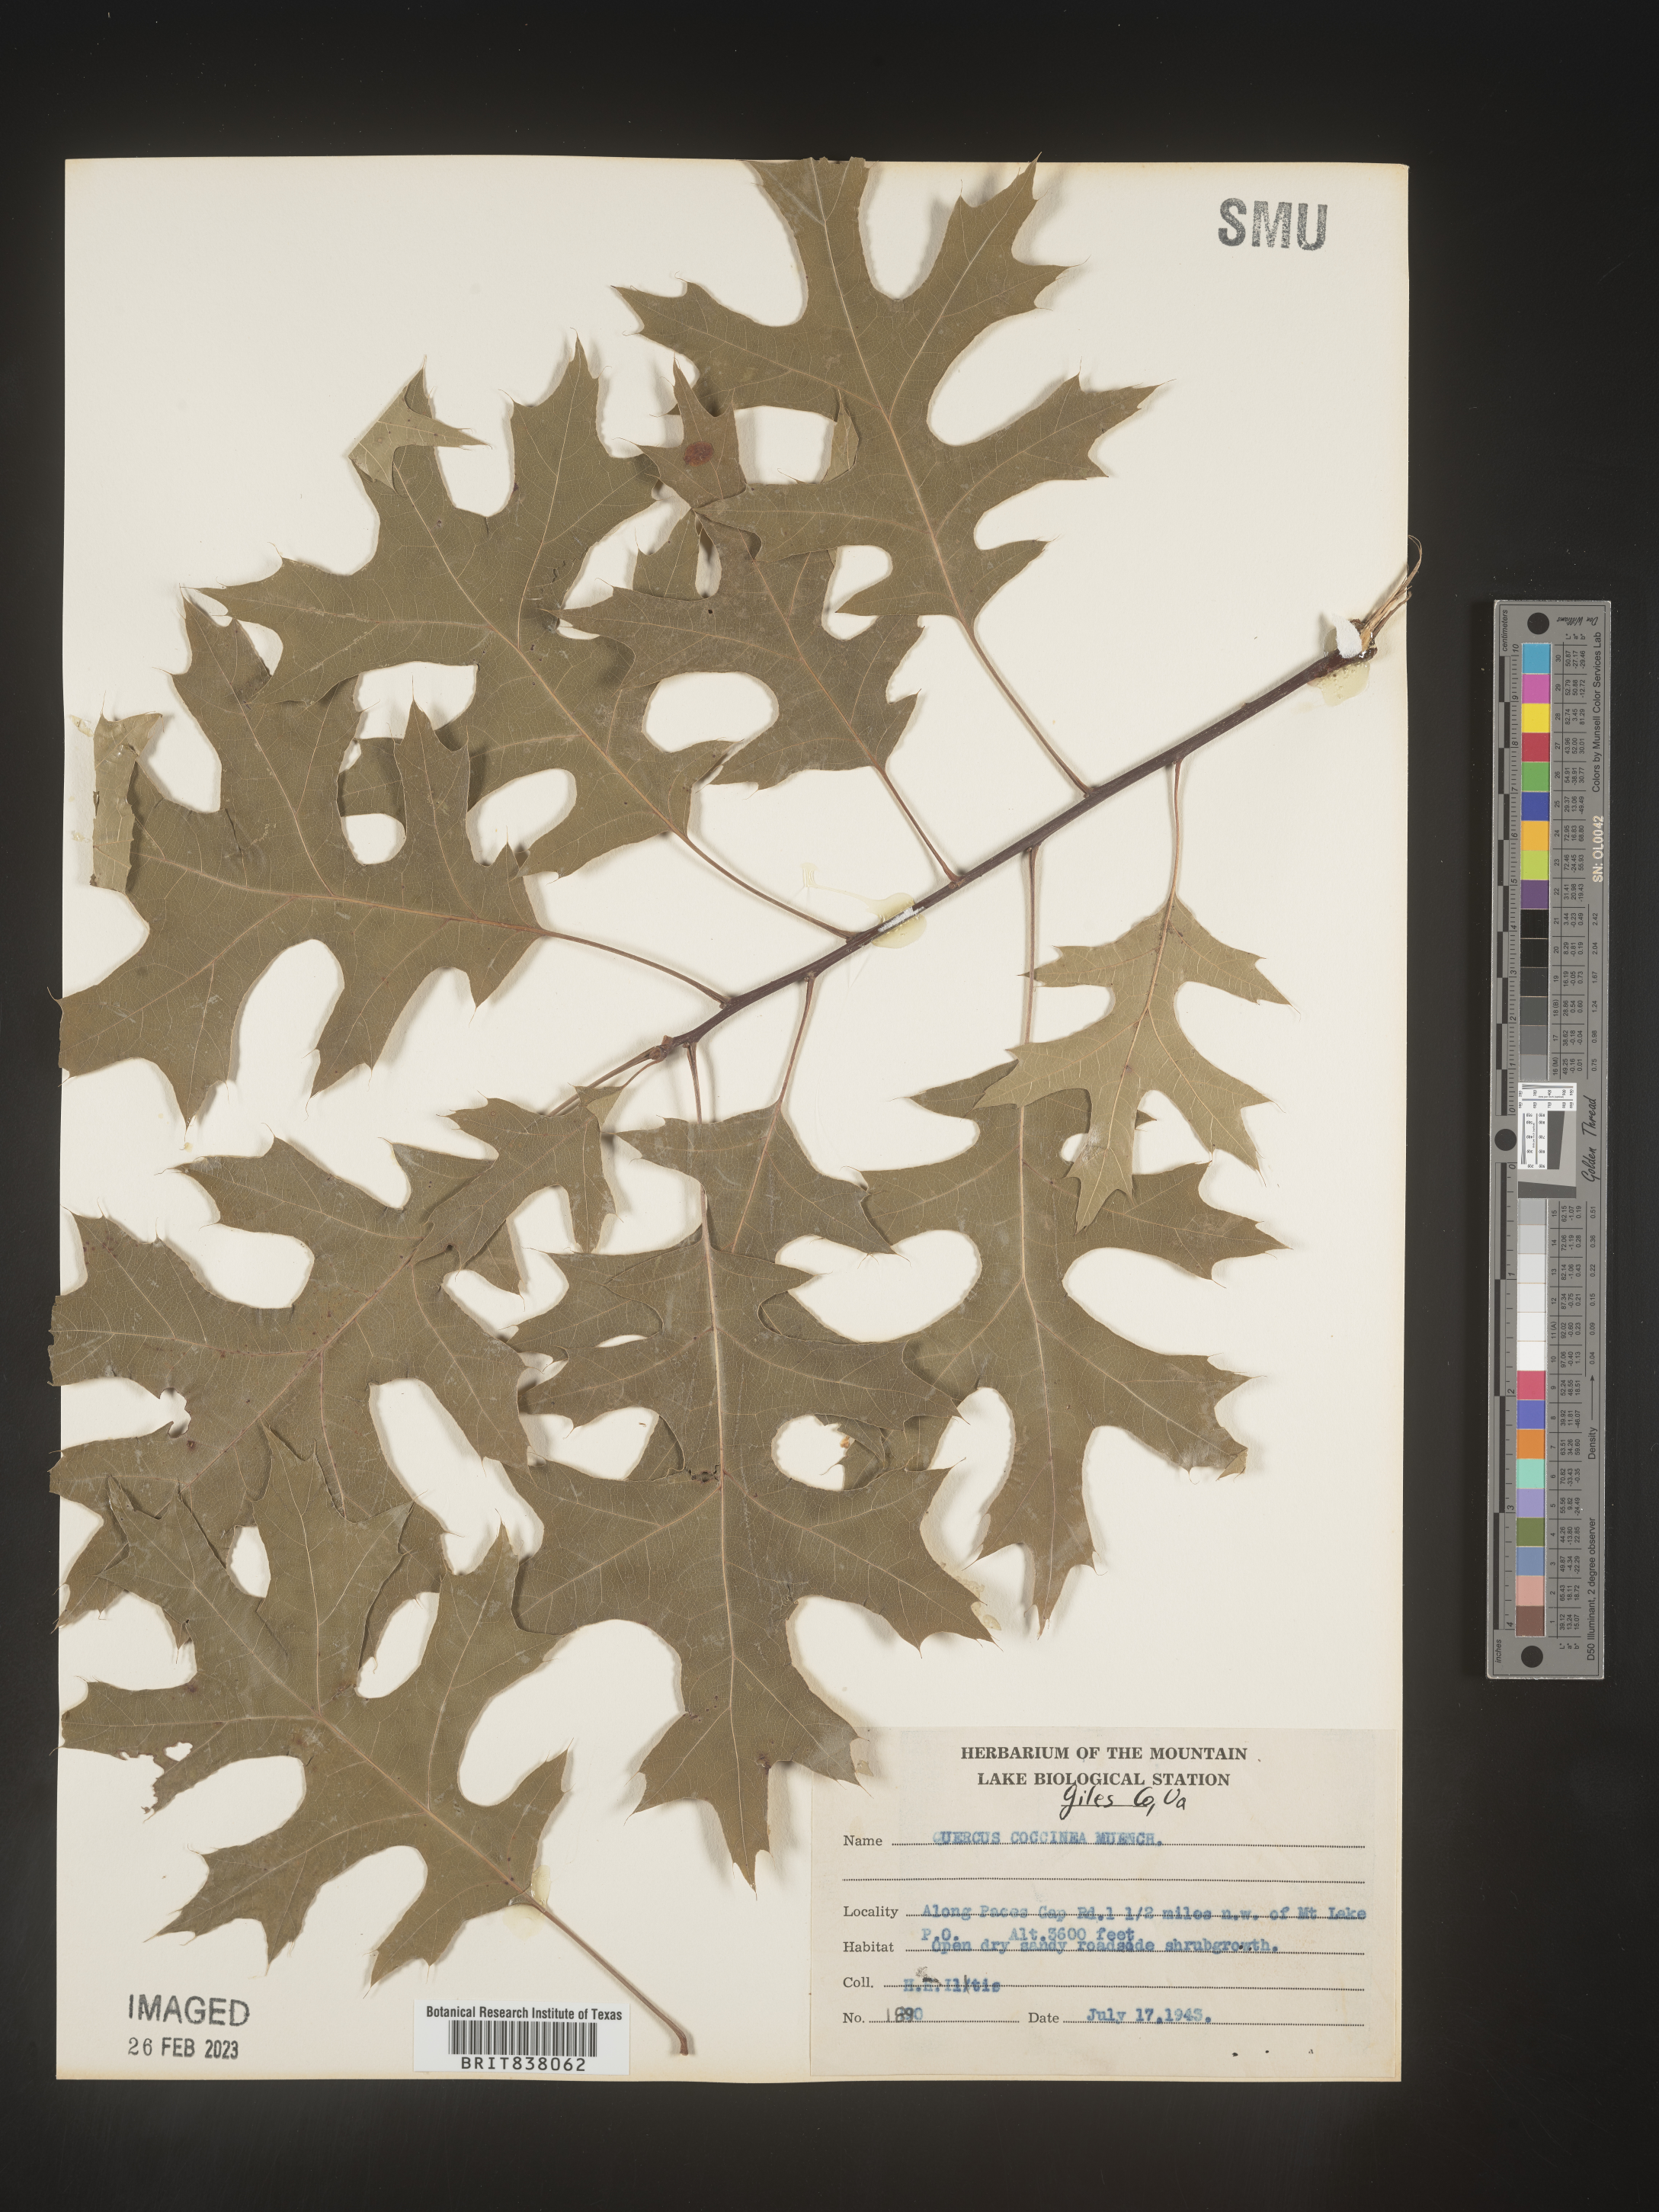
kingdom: Plantae
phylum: Tracheophyta
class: Magnoliopsida
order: Fagales
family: Fagaceae
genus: Quercus
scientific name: Quercus coccinea
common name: Scarlet oak
